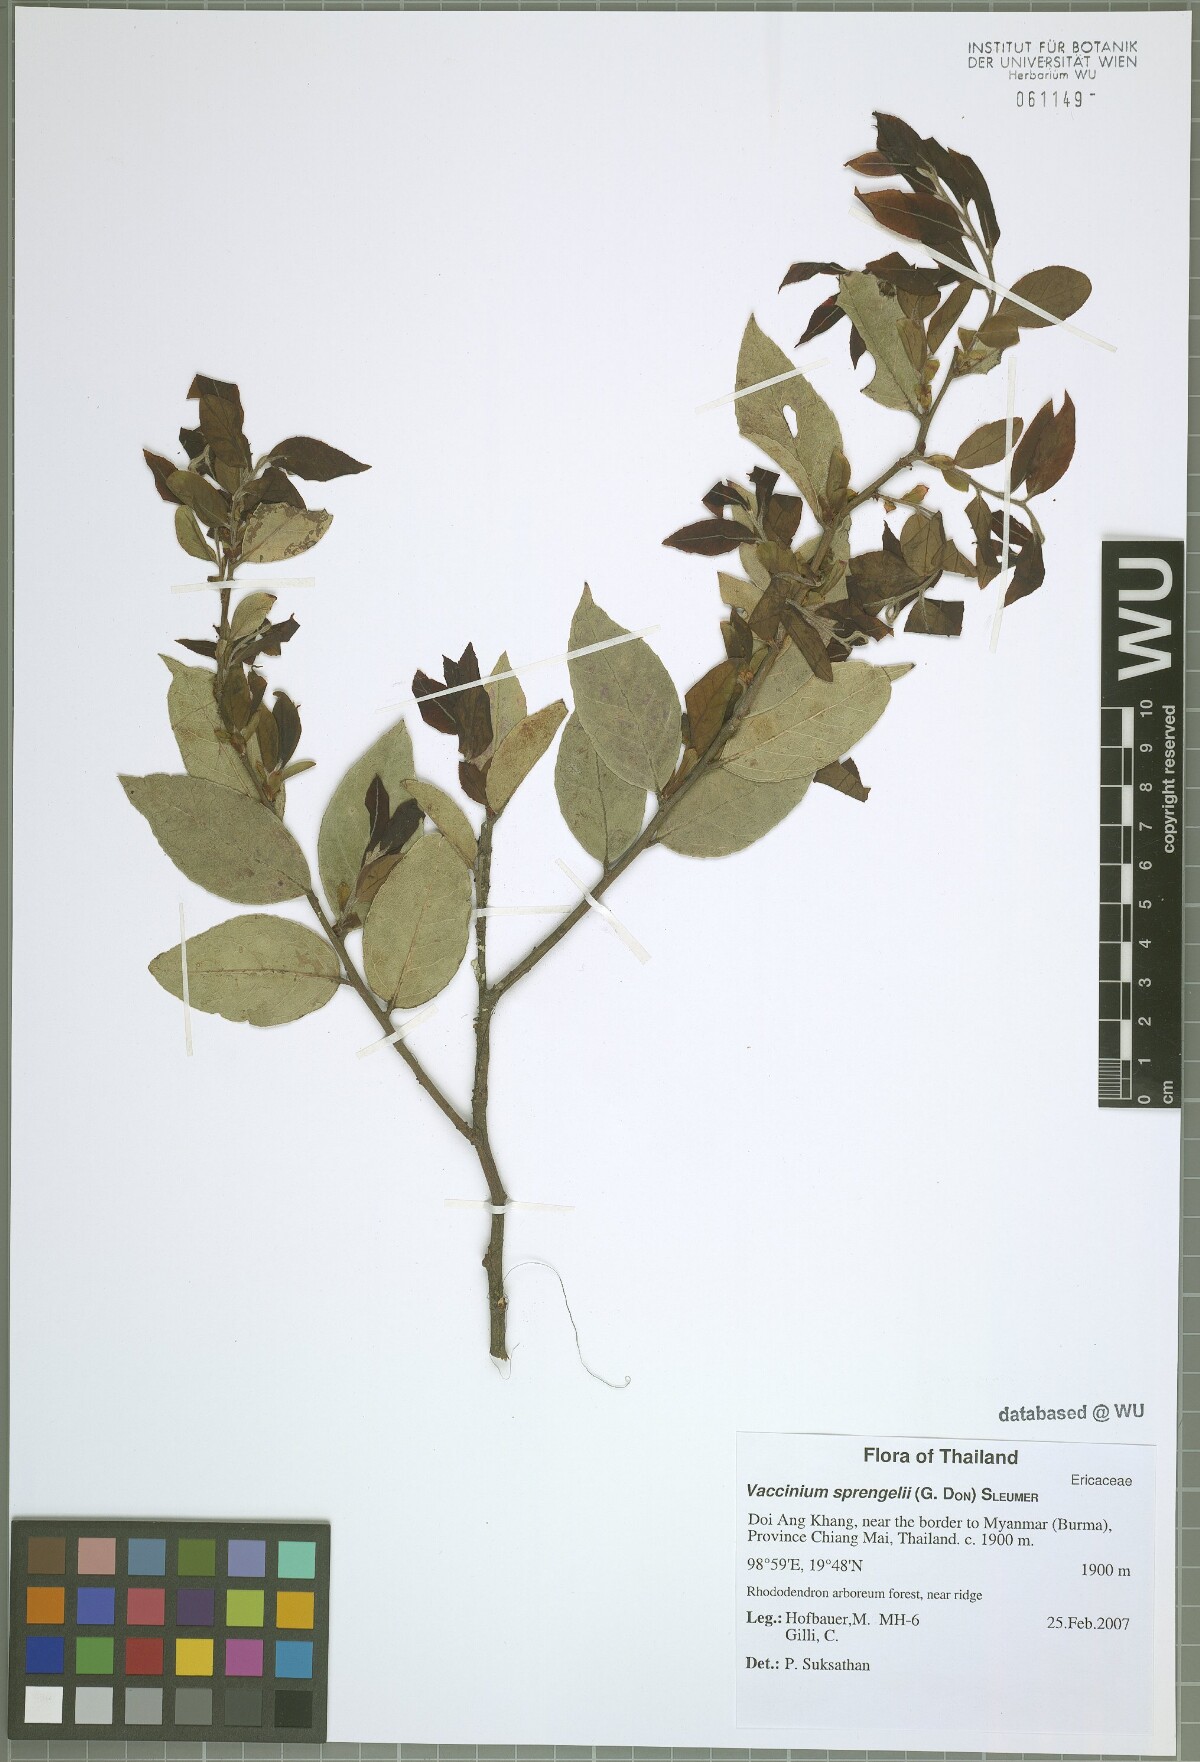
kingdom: Plantae
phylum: Tracheophyta
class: Magnoliopsida
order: Ericales
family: Ericaceae
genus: Vaccinium
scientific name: Vaccinium sprengelii
